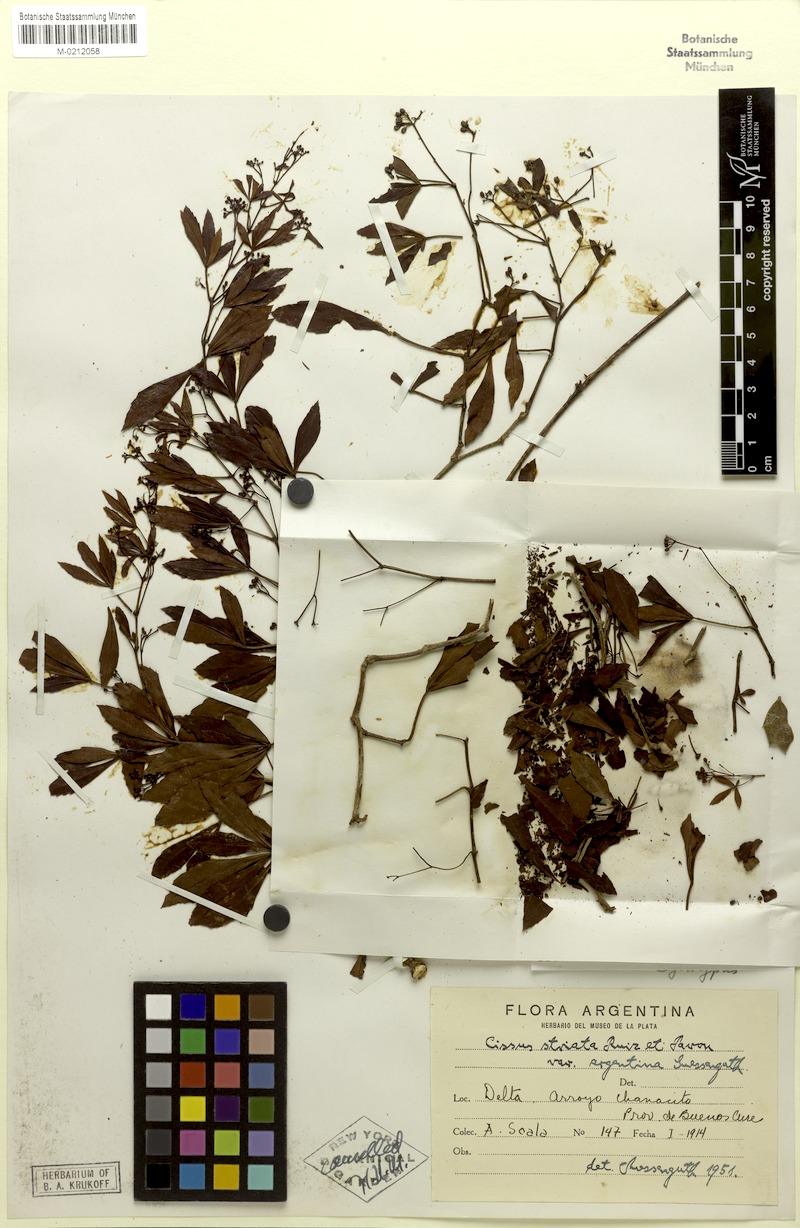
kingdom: Plantae
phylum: Tracheophyta
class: Magnoliopsida
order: Vitales
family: Vitaceae
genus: Clematicissus
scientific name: Clematicissus striata
